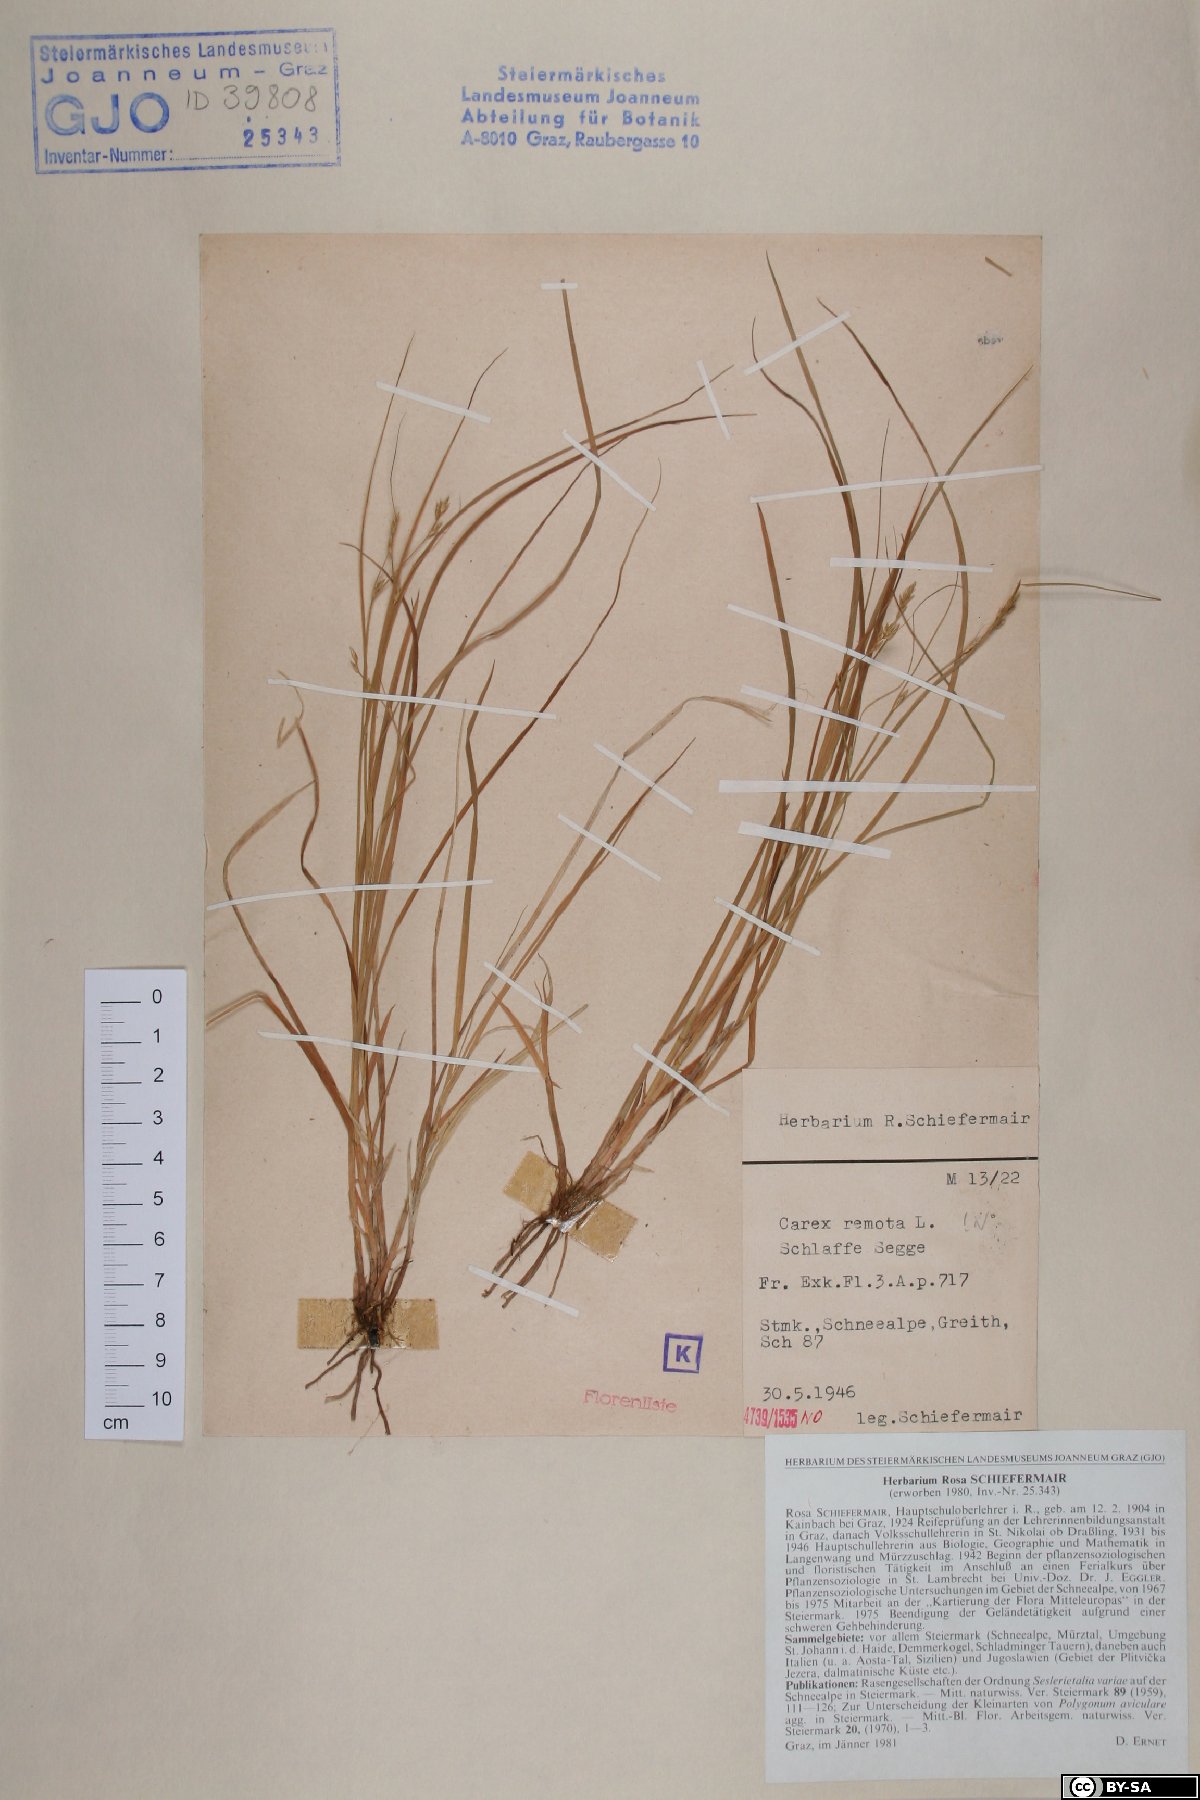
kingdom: Plantae
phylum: Tracheophyta
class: Liliopsida
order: Poales
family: Cyperaceae
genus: Carex
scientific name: Carex remota
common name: Remote sedge
